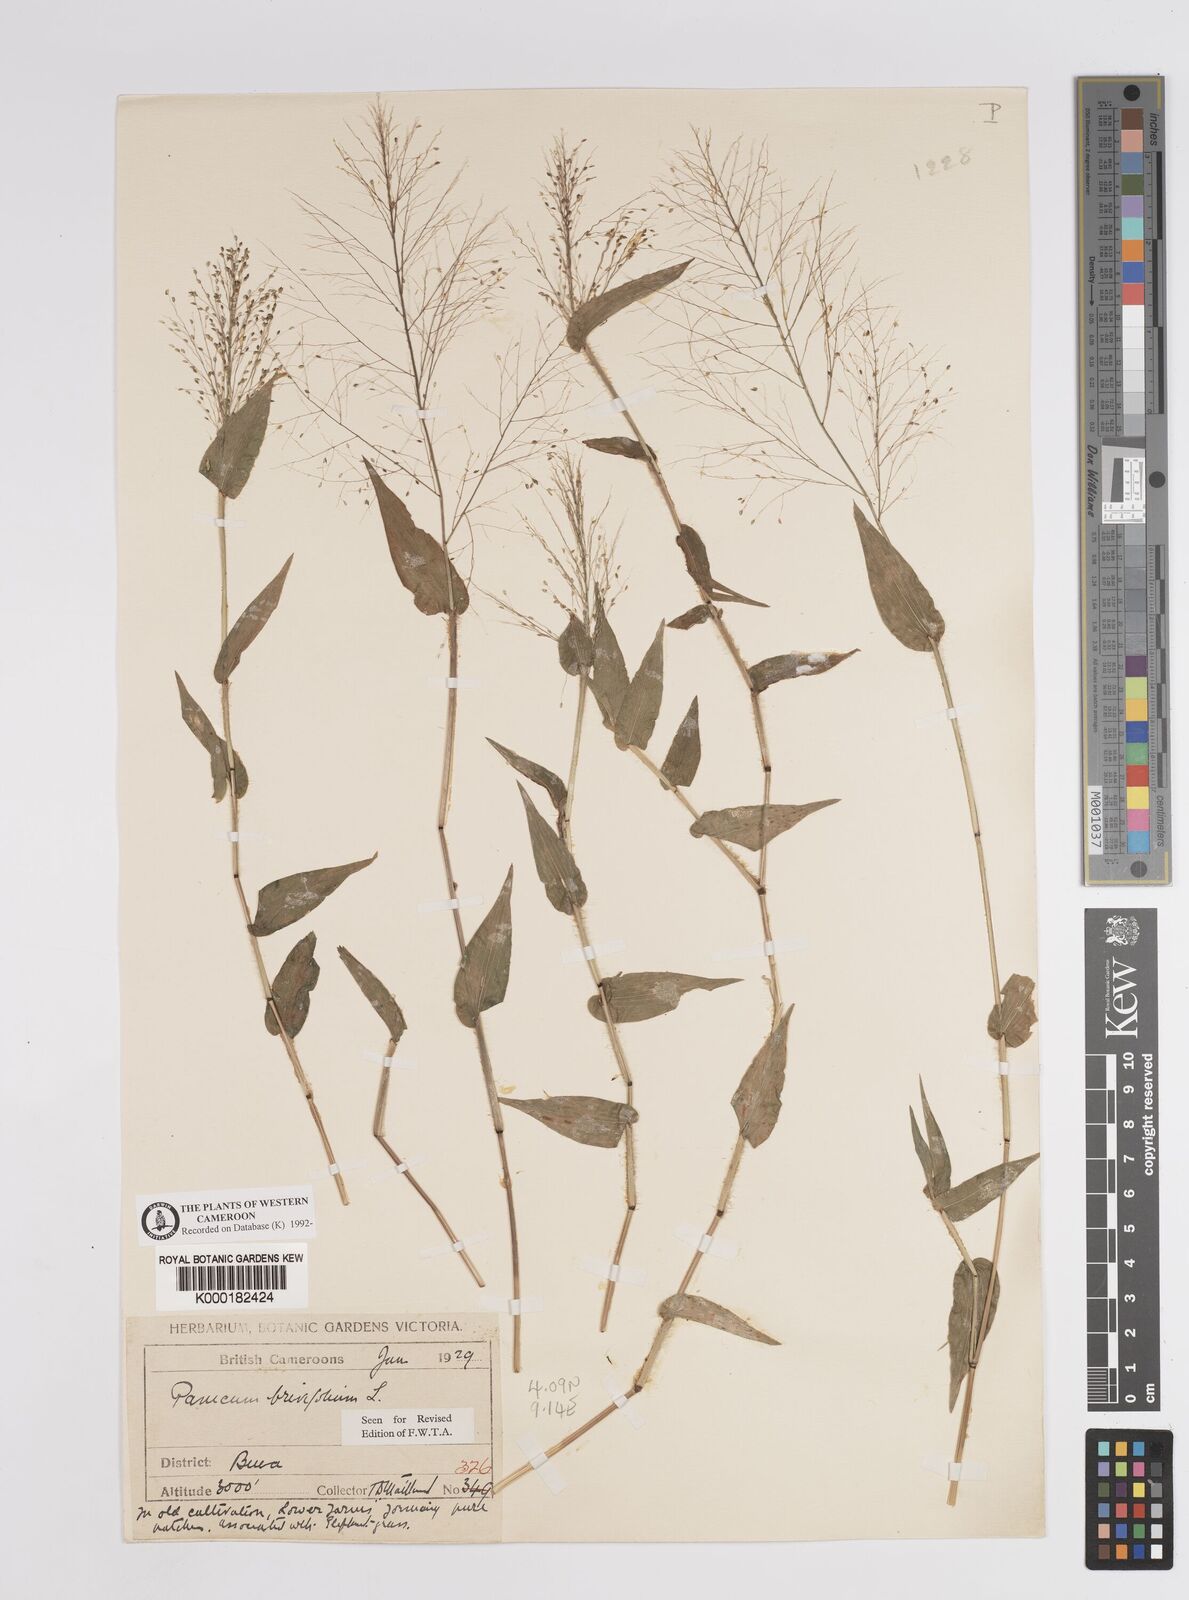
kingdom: Plantae
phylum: Tracheophyta
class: Liliopsida
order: Poales
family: Poaceae
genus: Panicum
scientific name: Panicum brevifolium
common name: Shortleaf panic grass
